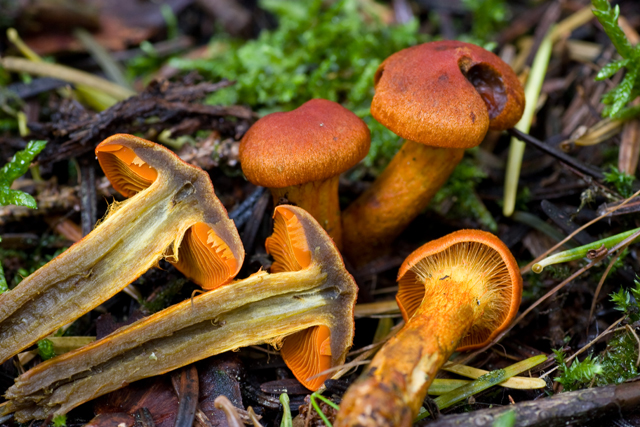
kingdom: Fungi
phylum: Basidiomycota
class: Agaricomycetes
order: Agaricales
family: Cortinariaceae
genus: Cortinarius
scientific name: Cortinarius malicorius
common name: grønkødet slørhat
